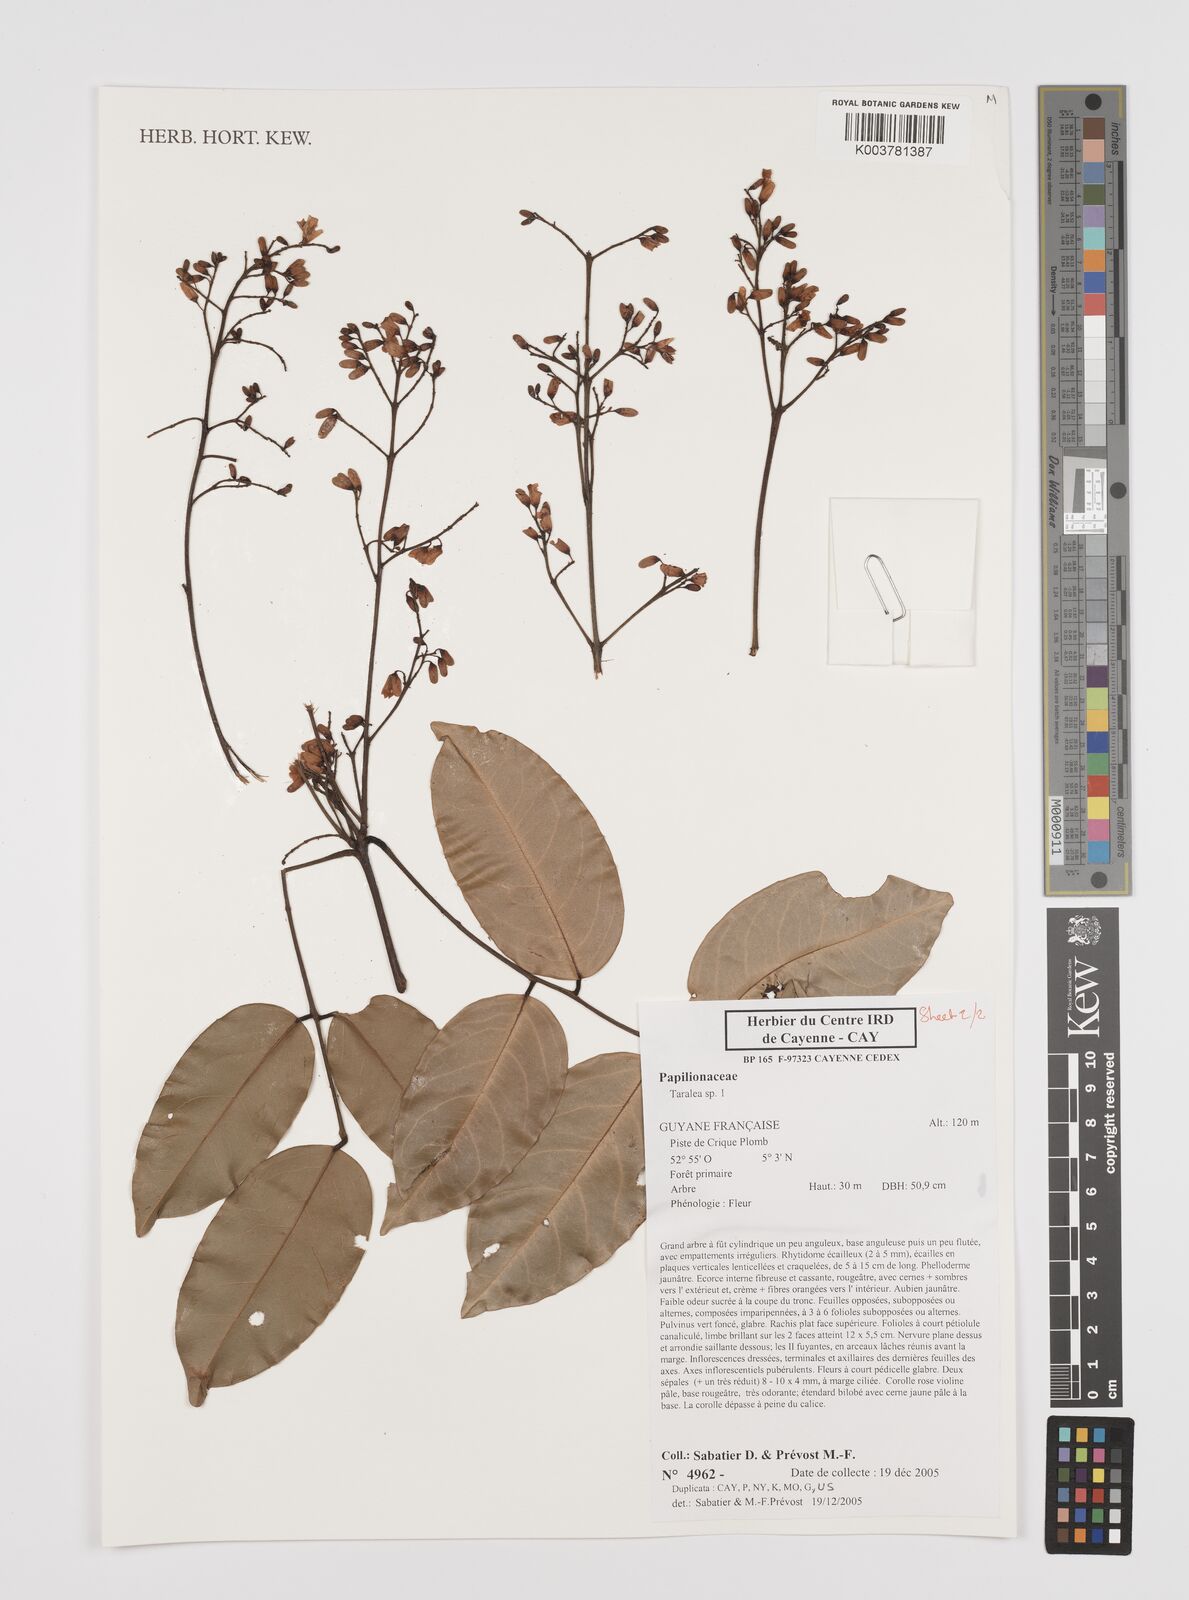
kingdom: Plantae
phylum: Tracheophyta
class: Magnoliopsida
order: Fabales
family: Fabaceae
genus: Taralea
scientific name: Taralea
